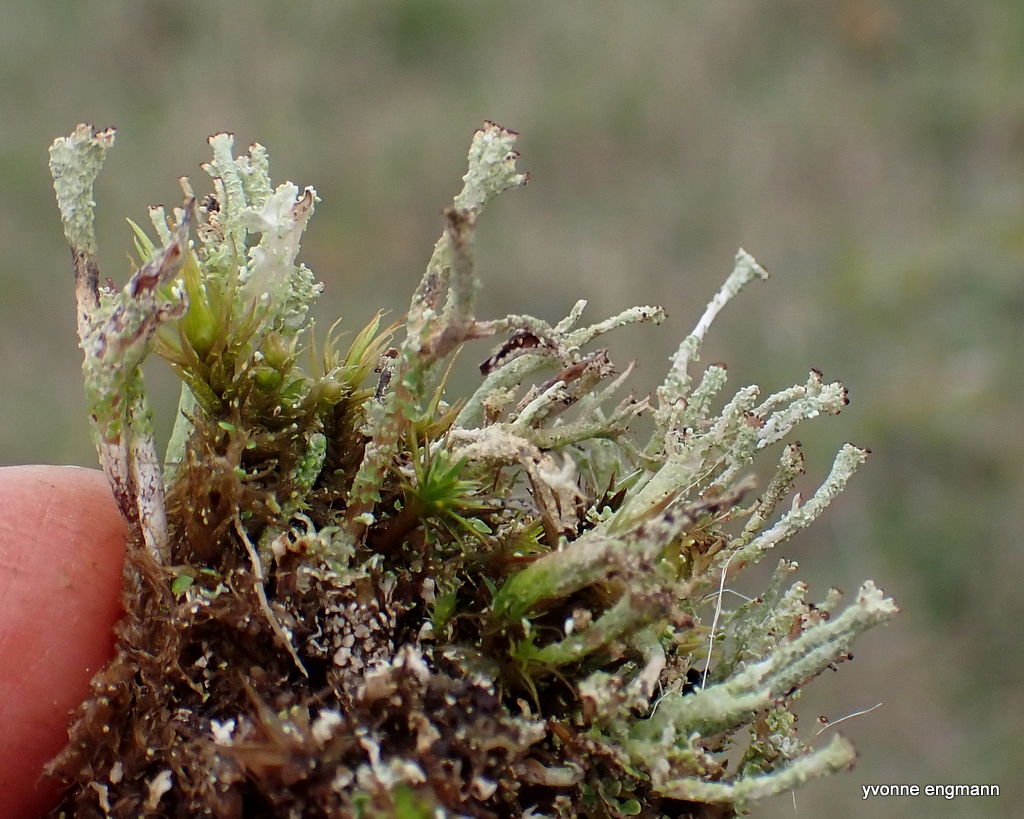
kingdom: Fungi
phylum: Ascomycota
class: Lecanoromycetes
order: Lecanorales
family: Cladoniaceae
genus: Cladonia
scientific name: Cladonia ramulosa
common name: kliddet bægerlav
